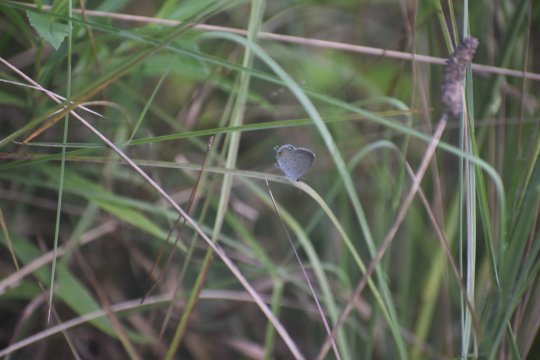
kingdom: Animalia
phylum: Arthropoda
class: Insecta
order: Lepidoptera
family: Lycaenidae
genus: Elkalyce
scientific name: Elkalyce comyntas
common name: Eastern Tailed-Blue
